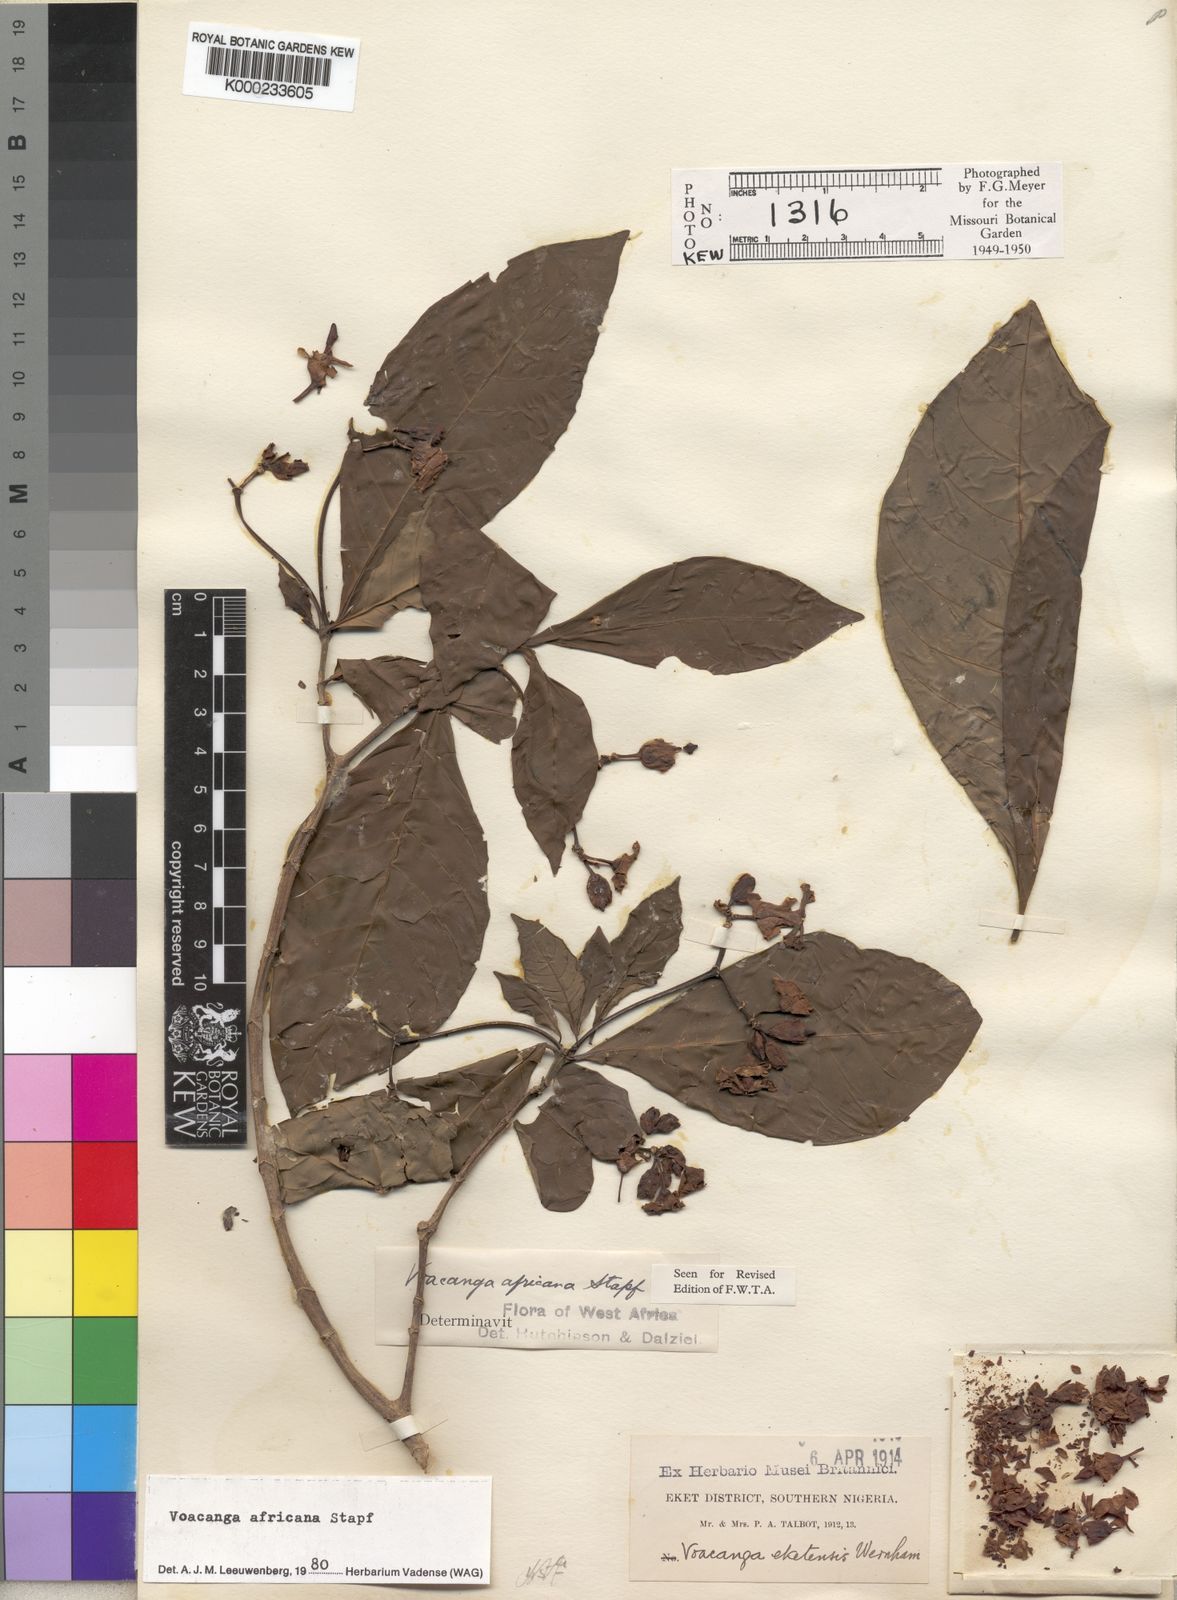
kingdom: Plantae
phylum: Tracheophyta
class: Magnoliopsida
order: Gentianales
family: Apocynaceae
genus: Voacanga
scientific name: Voacanga africana
